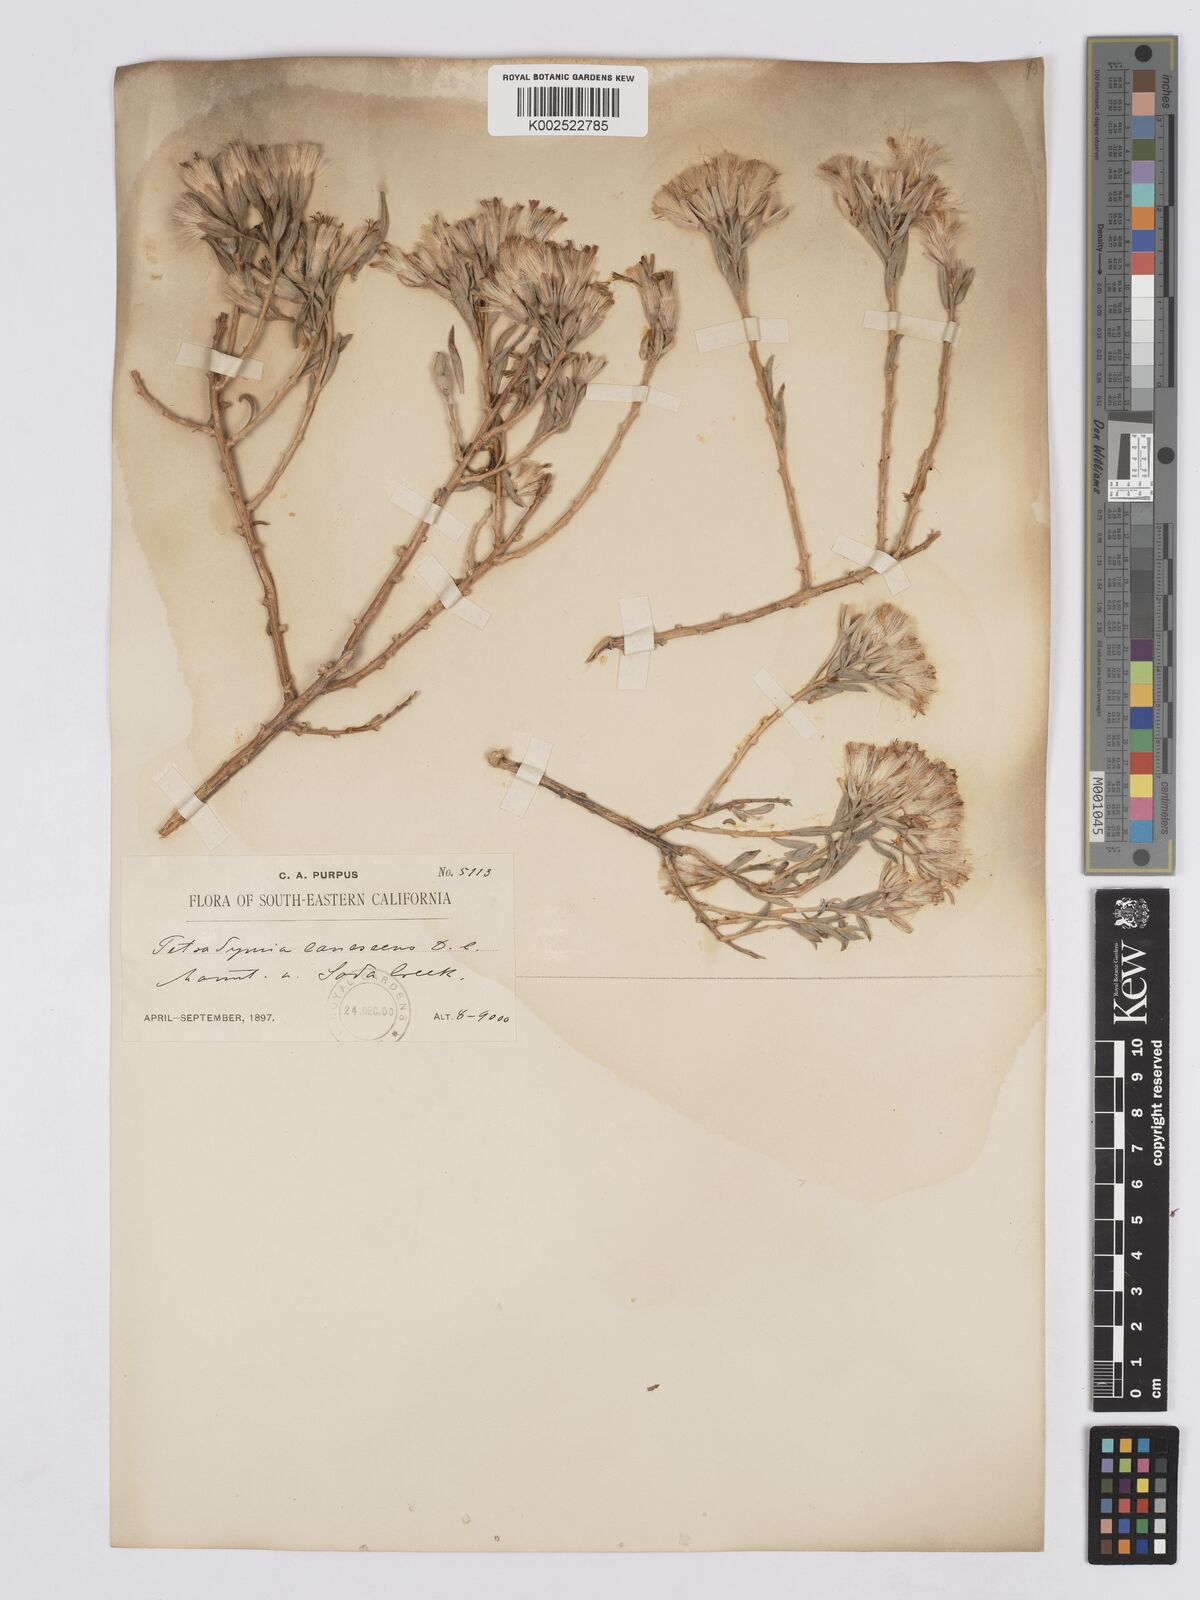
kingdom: Plantae
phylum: Tracheophyta
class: Magnoliopsida
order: Asterales
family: Asteraceae
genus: Tetradymia
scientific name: Tetradymia canescens
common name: Spineless horsebrush
